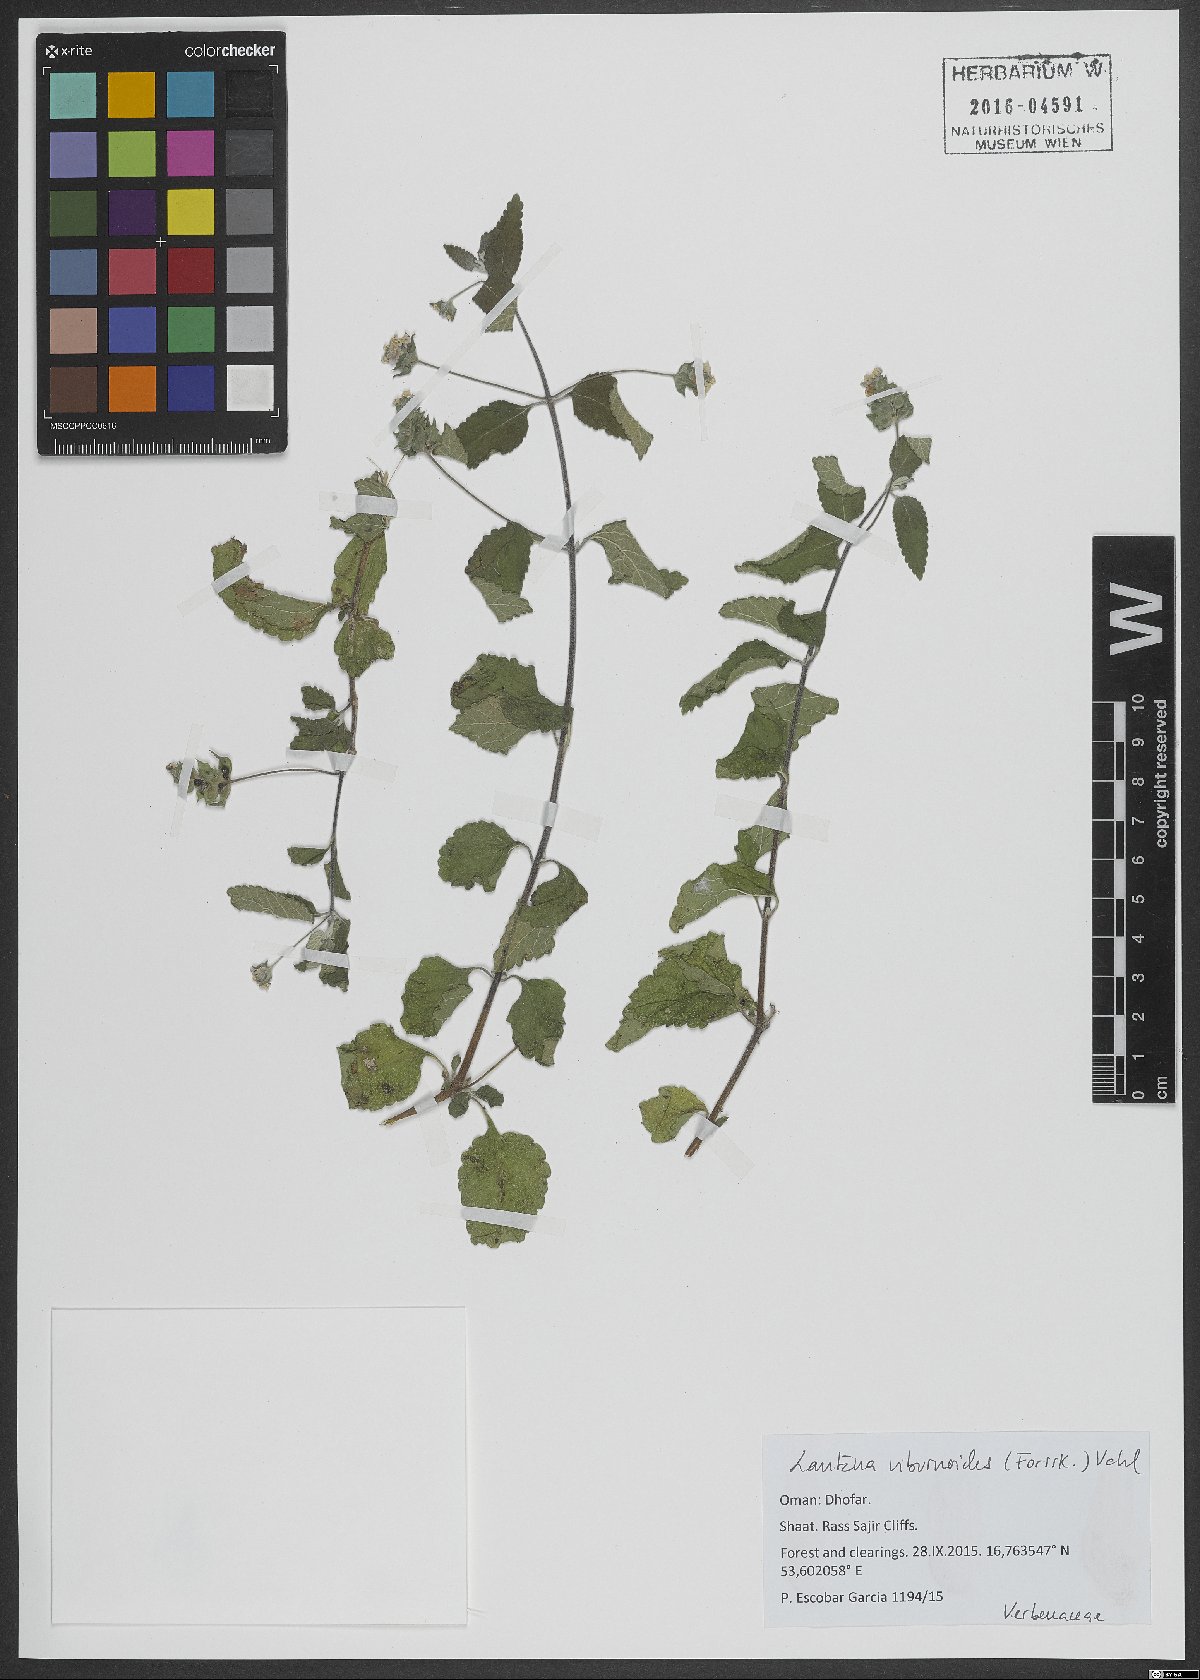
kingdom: Plantae
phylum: Tracheophyta
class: Magnoliopsida
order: Lamiales
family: Verbenaceae
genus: Lantana
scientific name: Lantana camara
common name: Lantana
